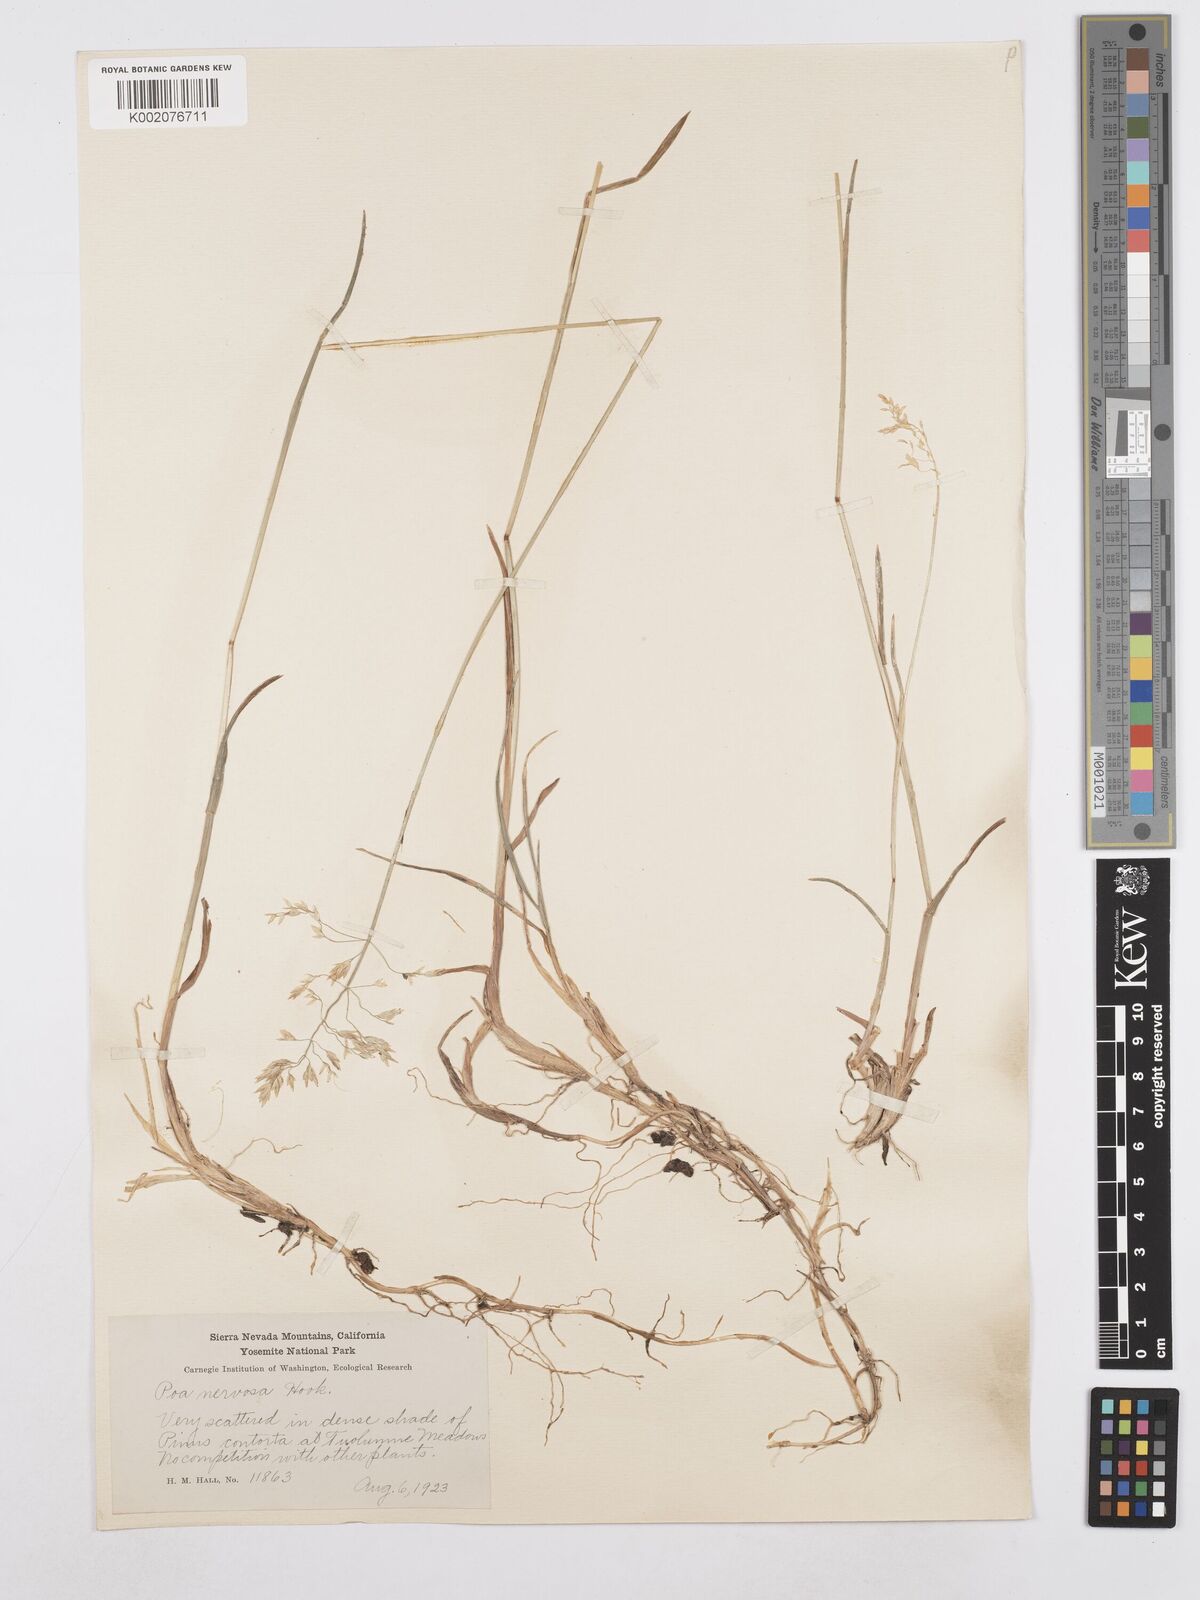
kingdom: Plantae
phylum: Tracheophyta
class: Liliopsida
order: Poales
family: Poaceae
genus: Poa
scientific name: Poa nervosa
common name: Hooker's bluegrass
